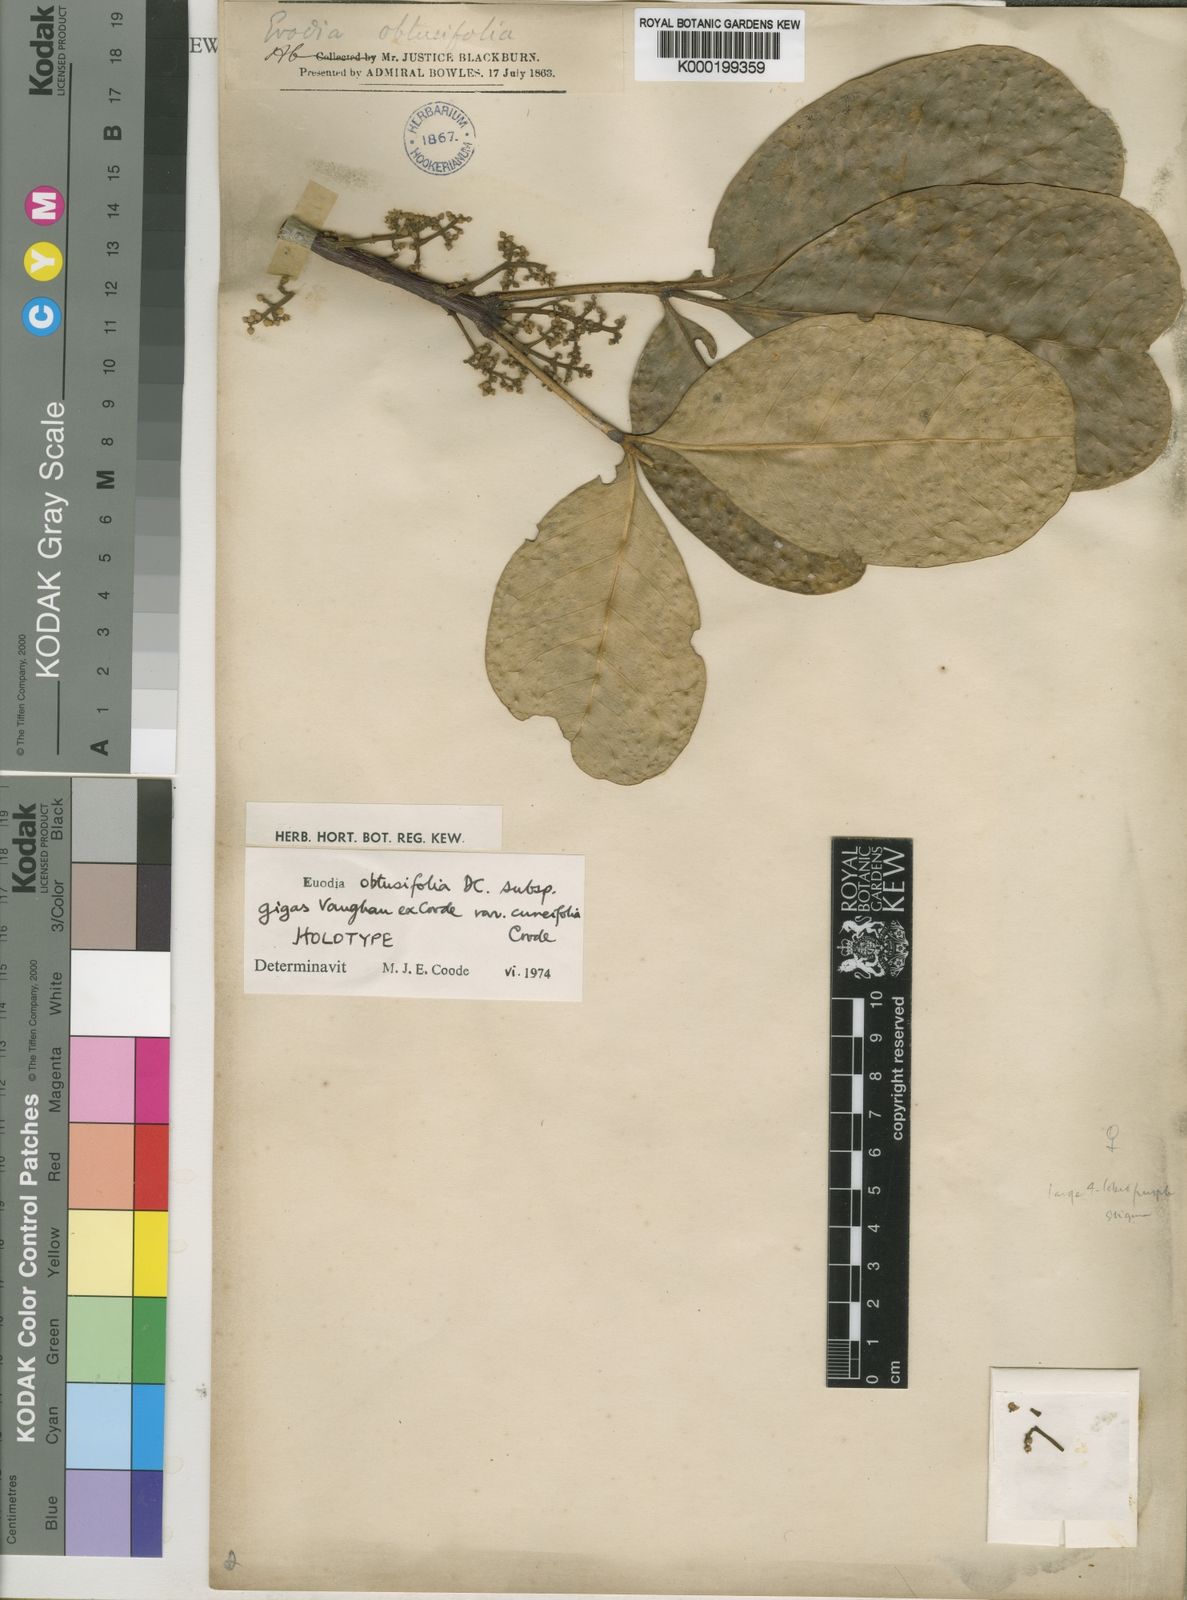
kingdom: Plantae
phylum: Tracheophyta
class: Magnoliopsida
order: Sapindales
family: Rutaceae
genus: Melicope
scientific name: Melicope obtusifolia
